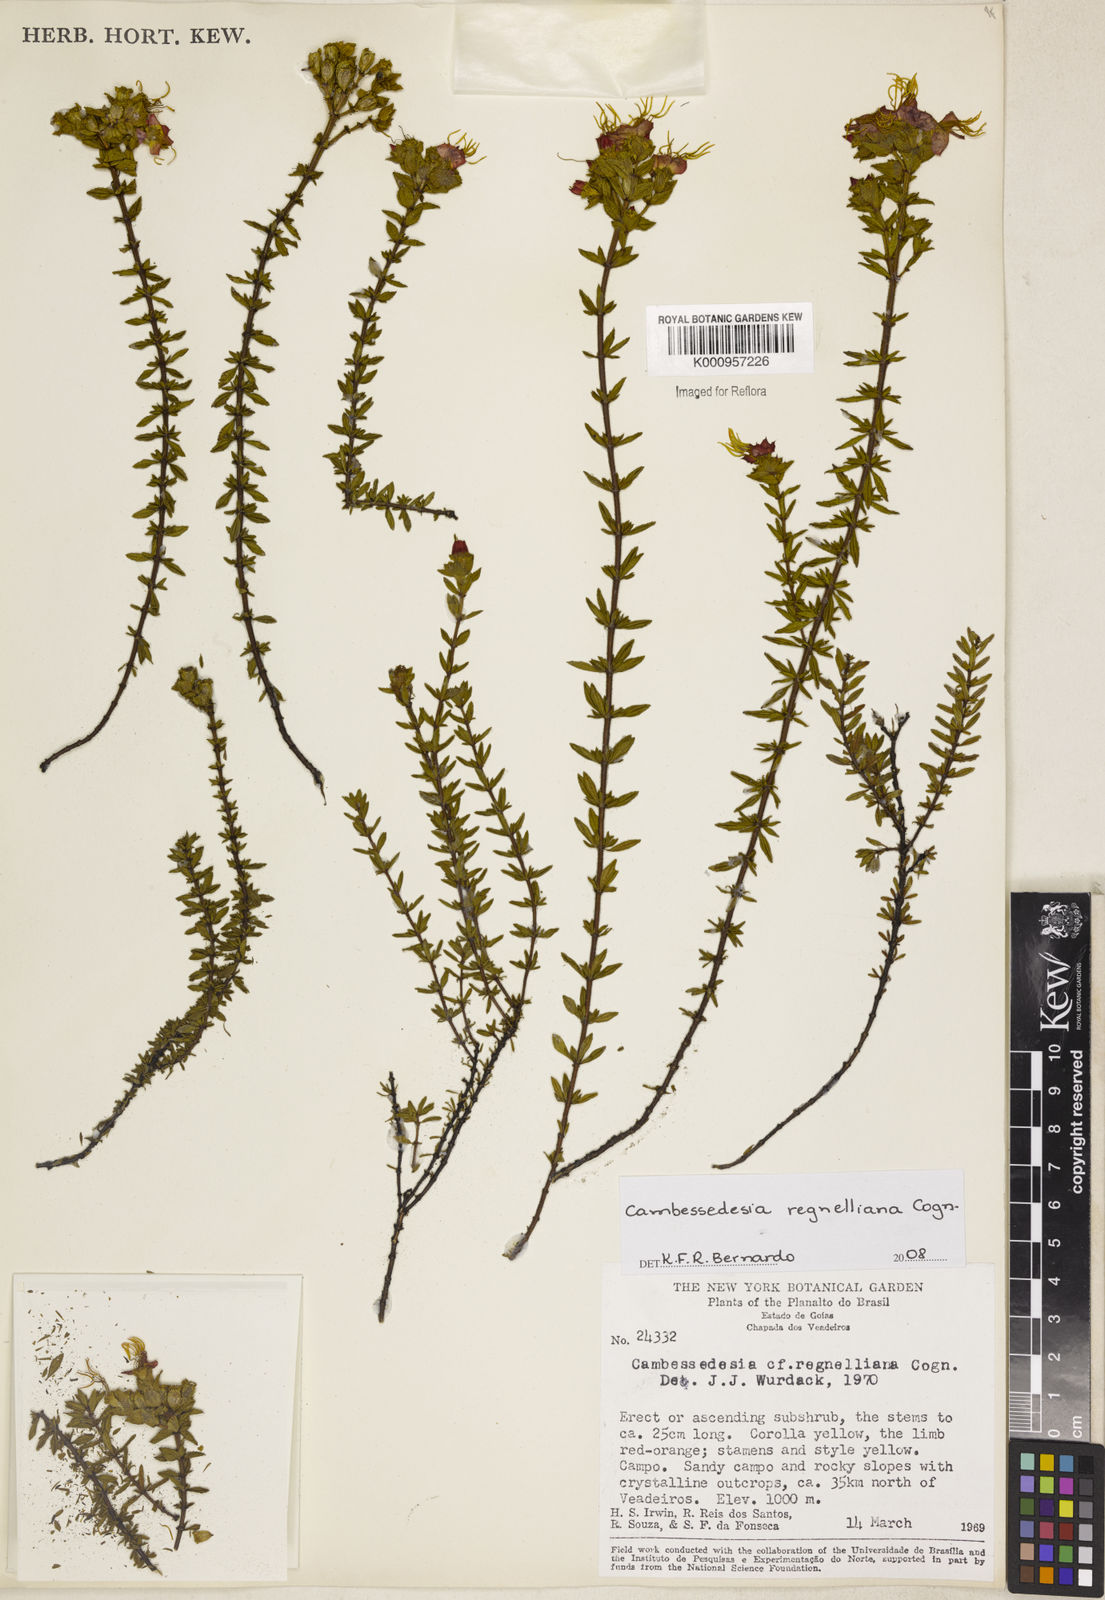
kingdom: Plantae
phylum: Tracheophyta
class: Magnoliopsida
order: Myrtales
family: Melastomataceae
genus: Cambessedesia
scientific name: Cambessedesia hilariana
